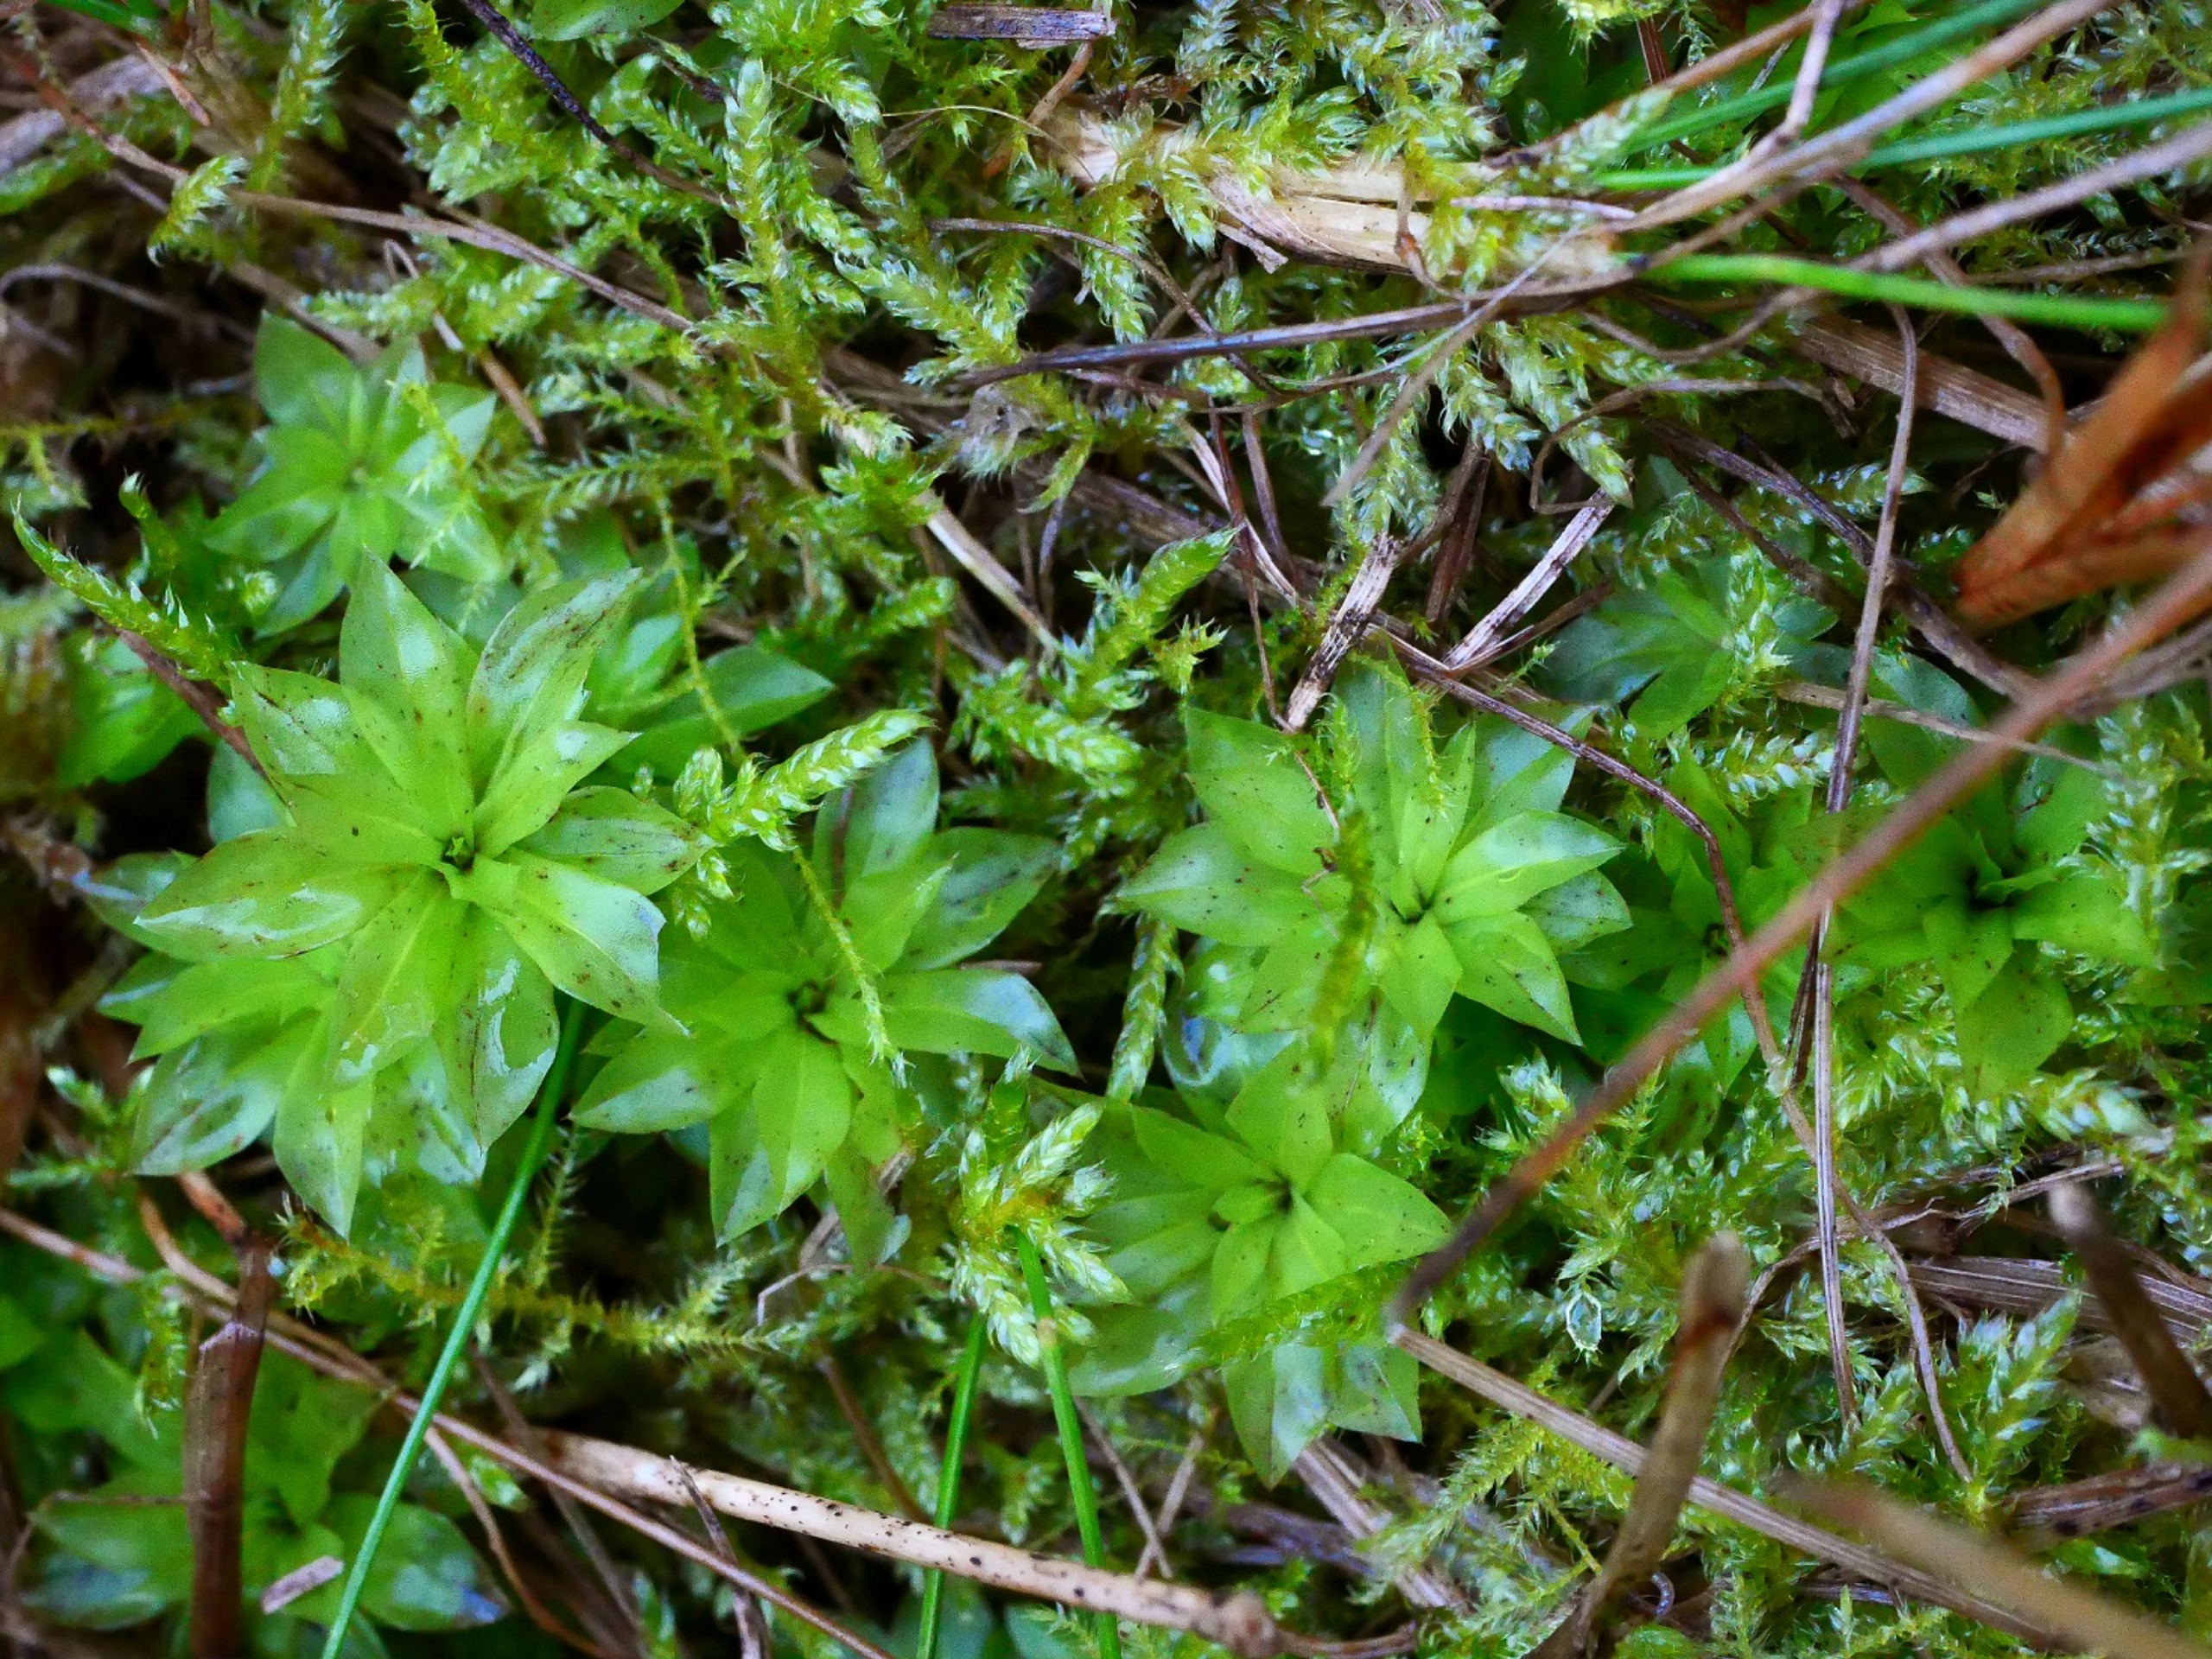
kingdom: Plantae
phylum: Bryophyta
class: Bryopsida
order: Bryales
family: Bryaceae
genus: Rhodobryum
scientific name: Rhodobryum roseum
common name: Stor rosetmos
